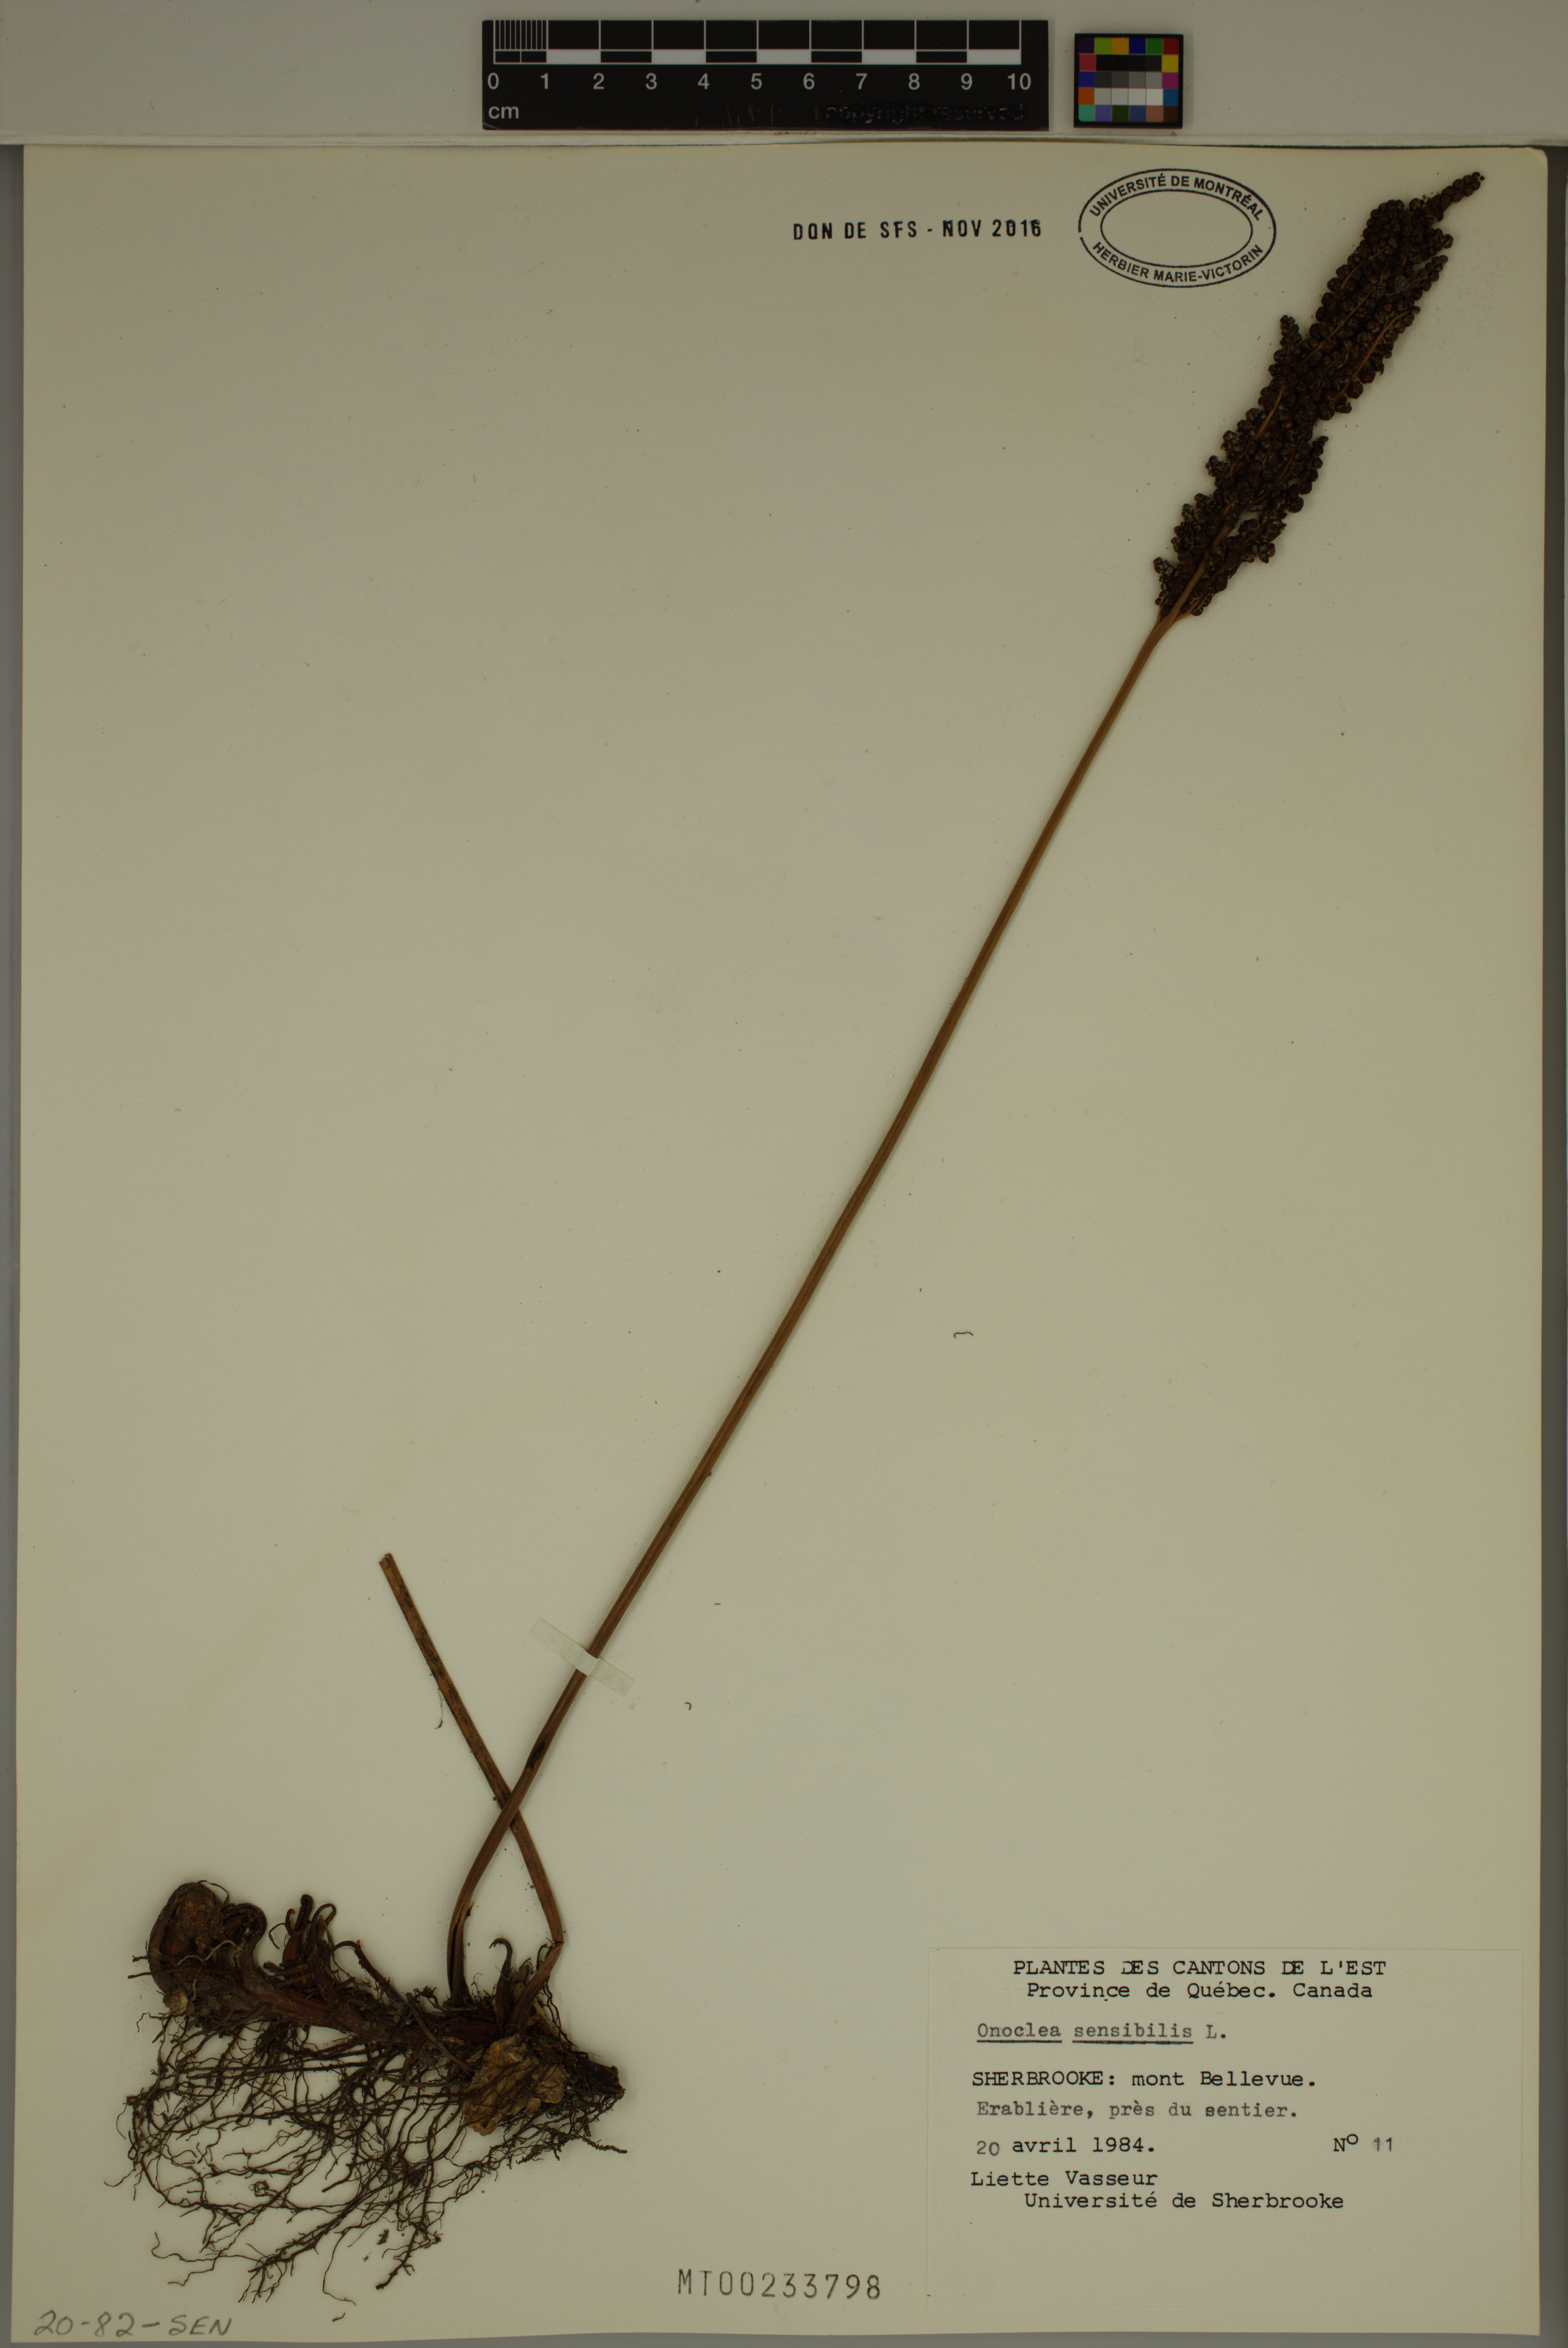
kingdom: Plantae
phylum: Tracheophyta
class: Polypodiopsida
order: Polypodiales
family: Onocleaceae
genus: Onoclea
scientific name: Onoclea sensibilis
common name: Sensitive fern
